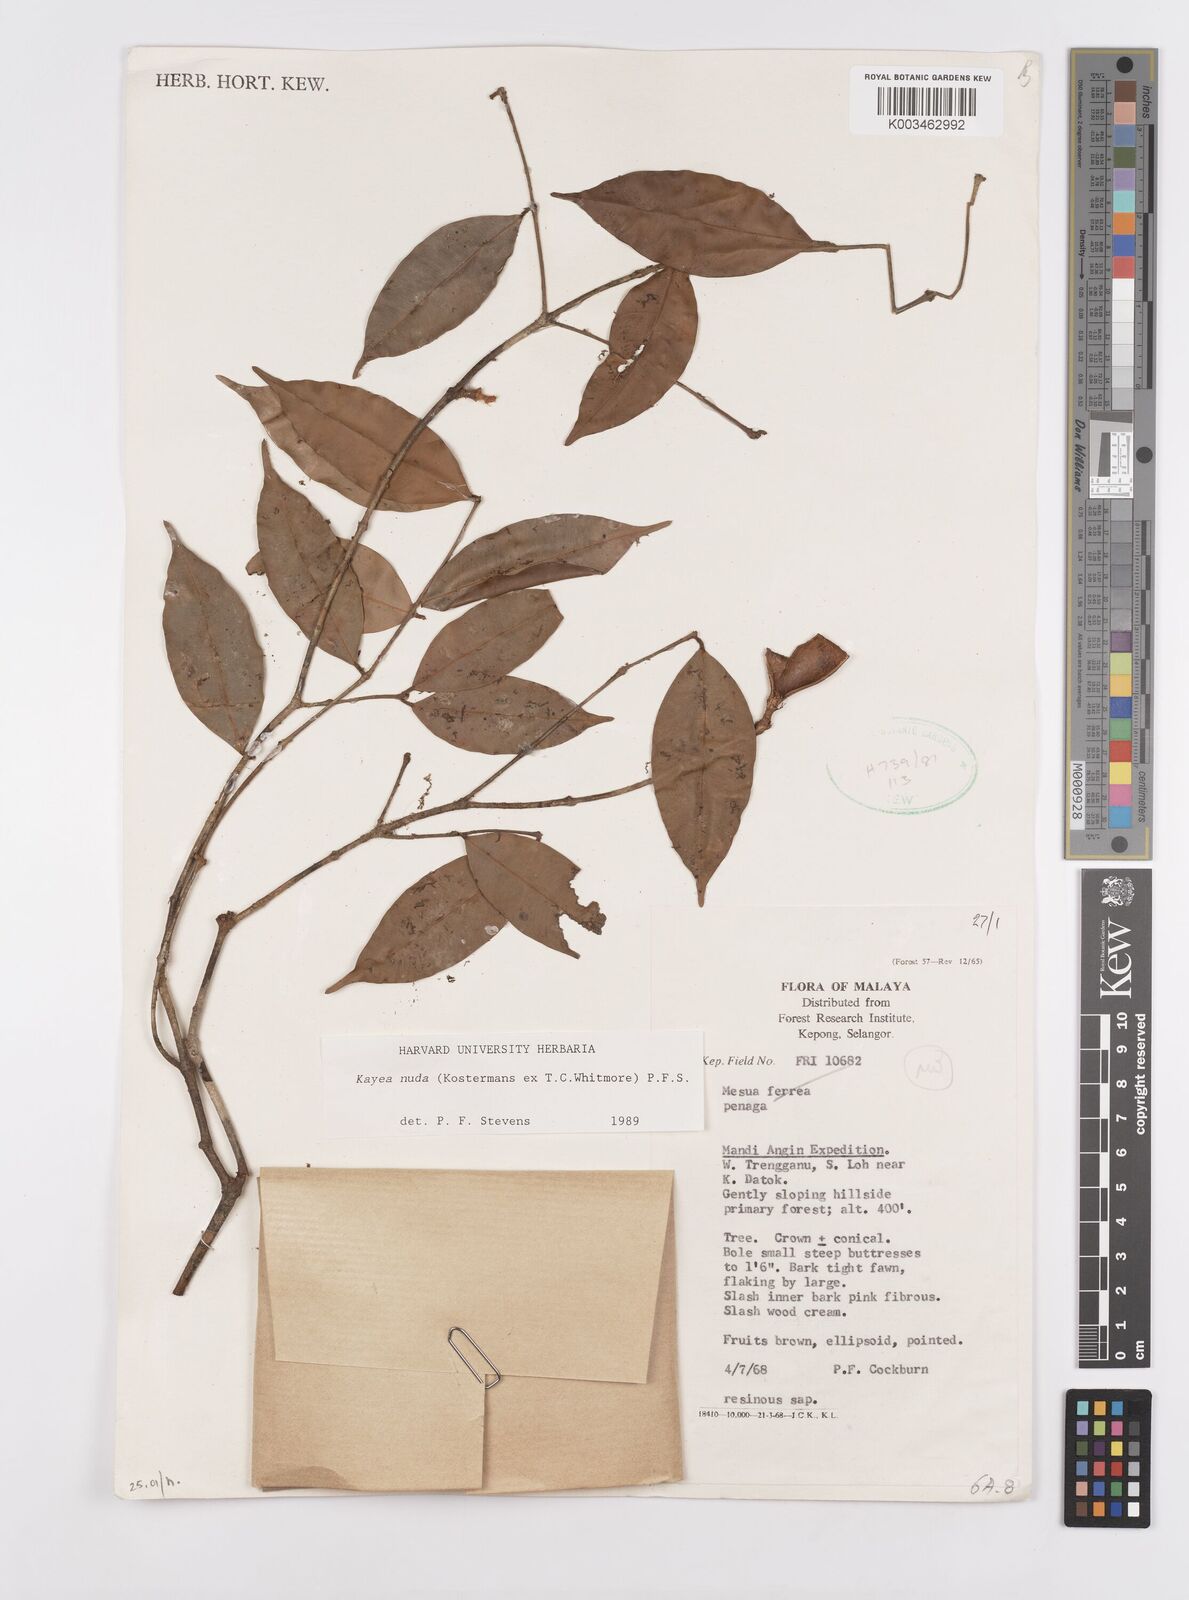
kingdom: Plantae
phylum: Tracheophyta
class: Magnoliopsida
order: Malpighiales
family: Calophyllaceae
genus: Kayea
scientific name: Kayea
